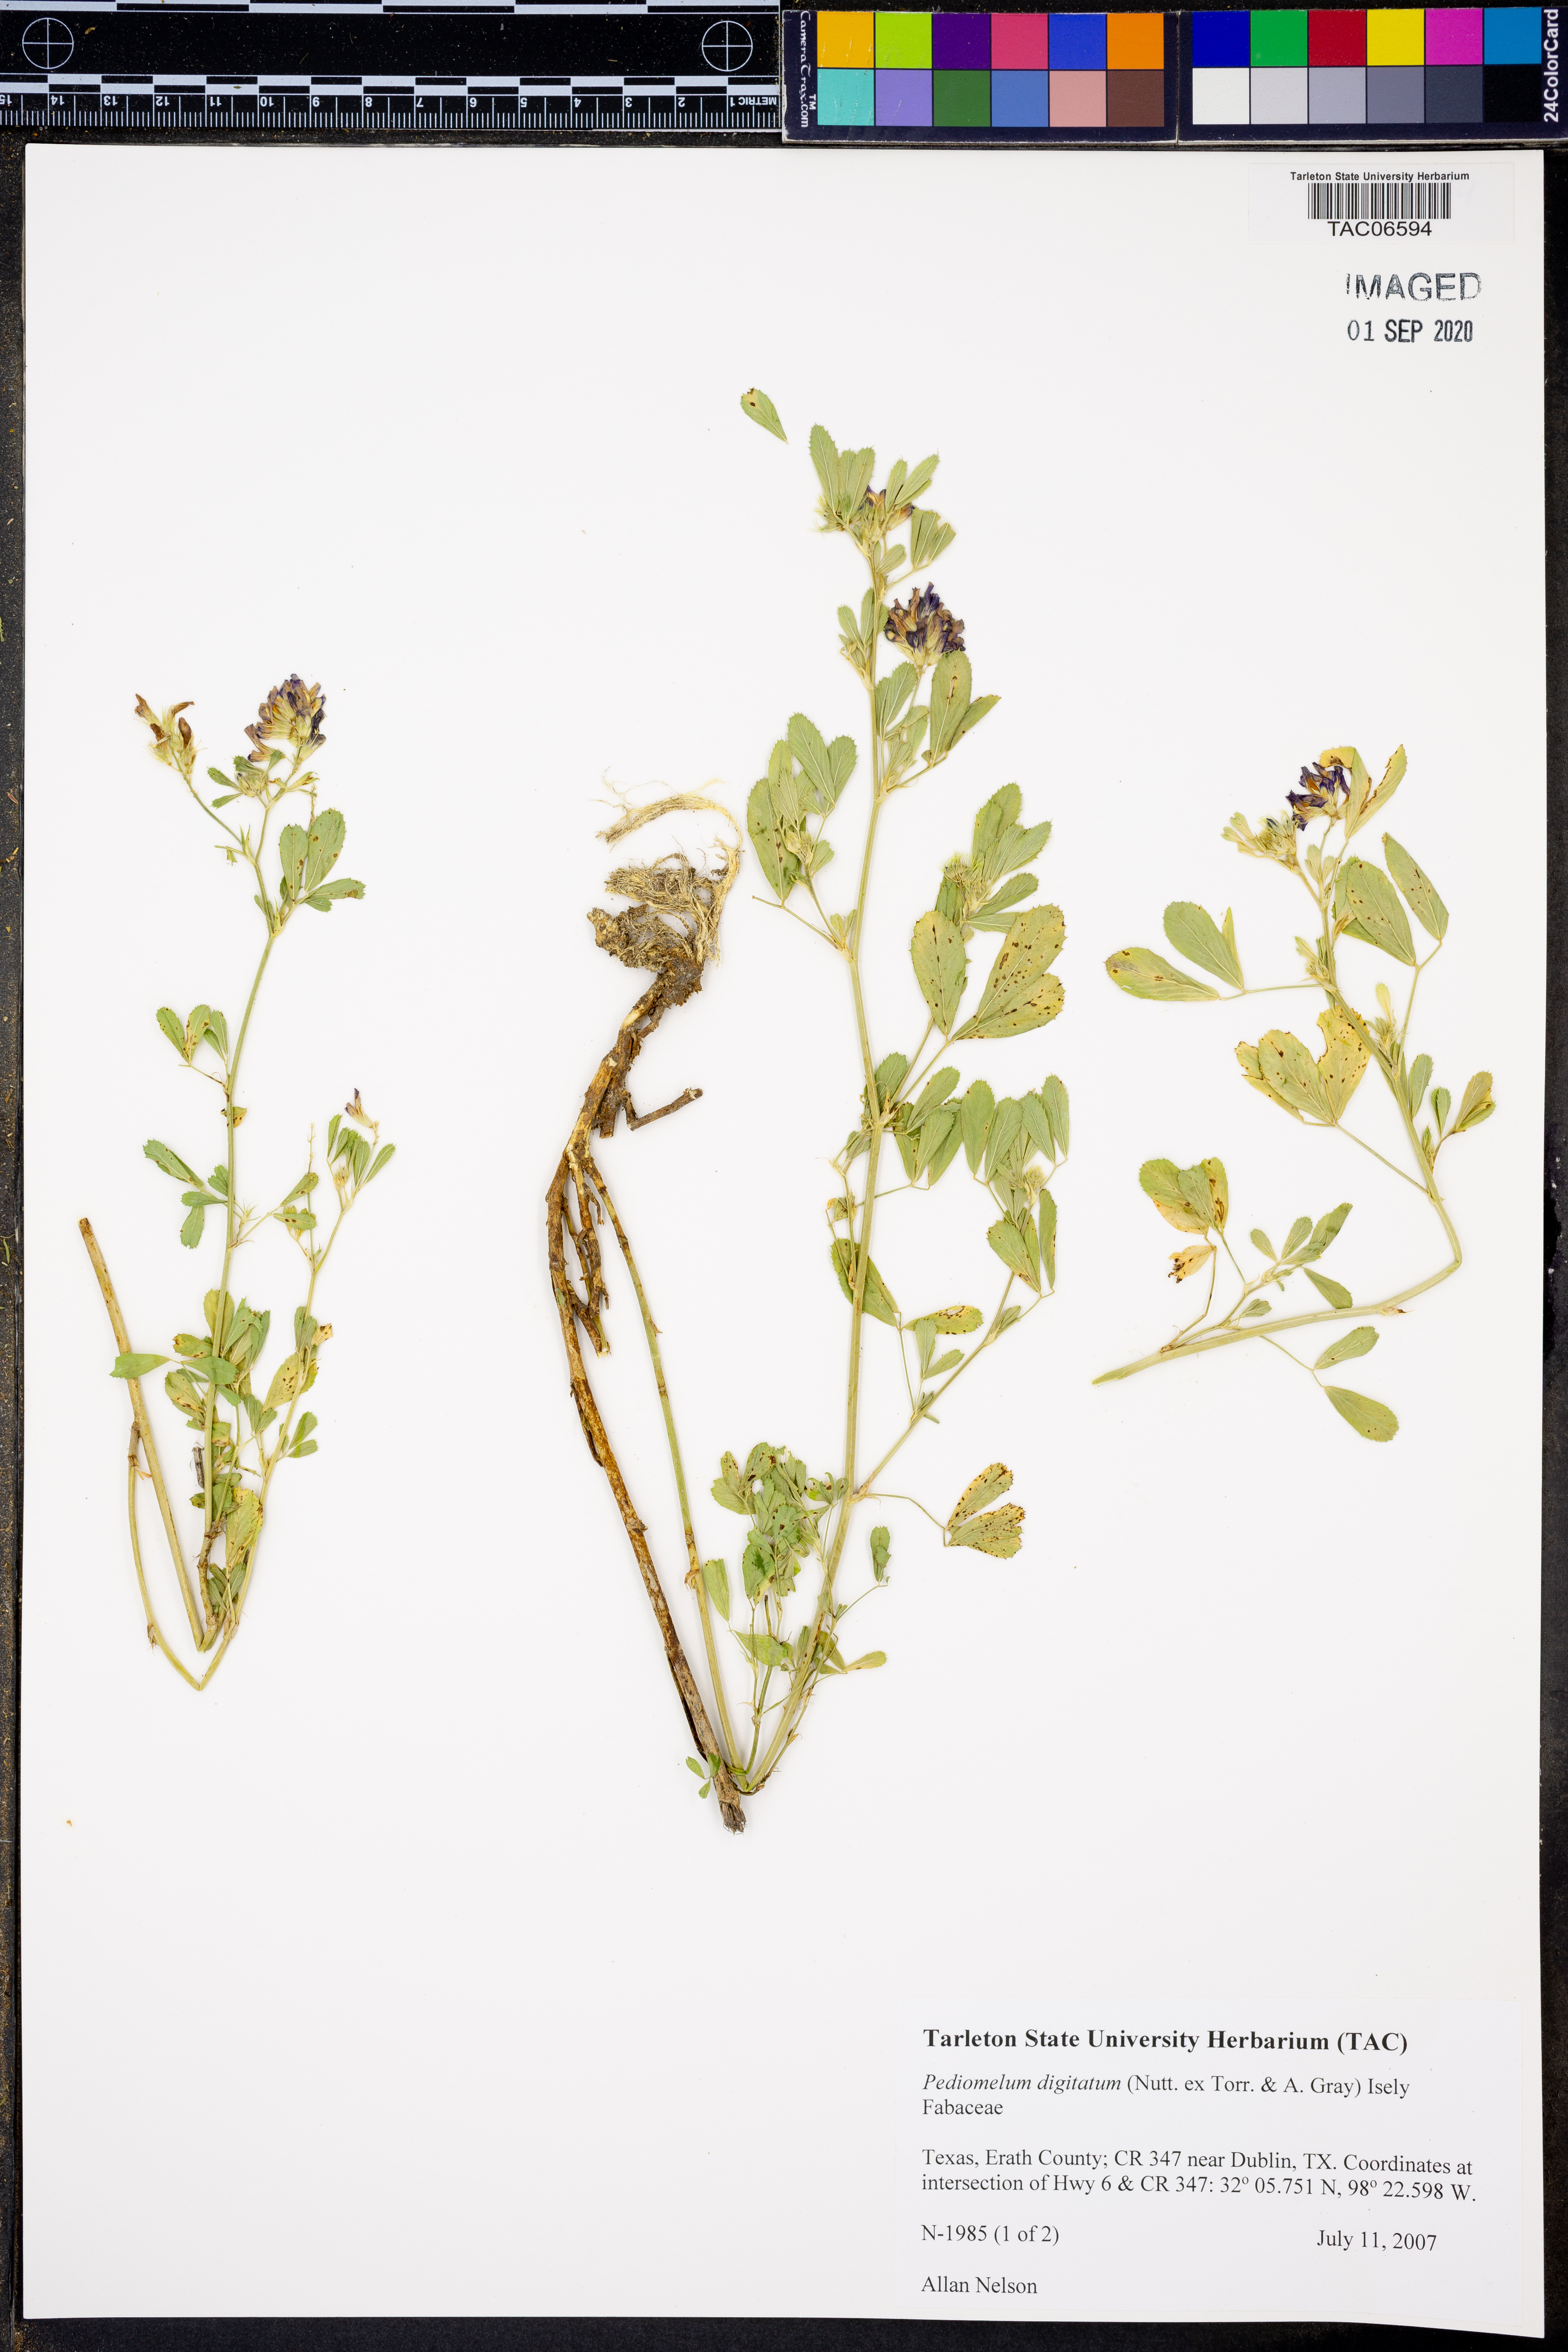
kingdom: Plantae
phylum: Tracheophyta
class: Magnoliopsida
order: Fabales
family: Fabaceae
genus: Pediomelum
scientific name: Pediomelum digitatum
